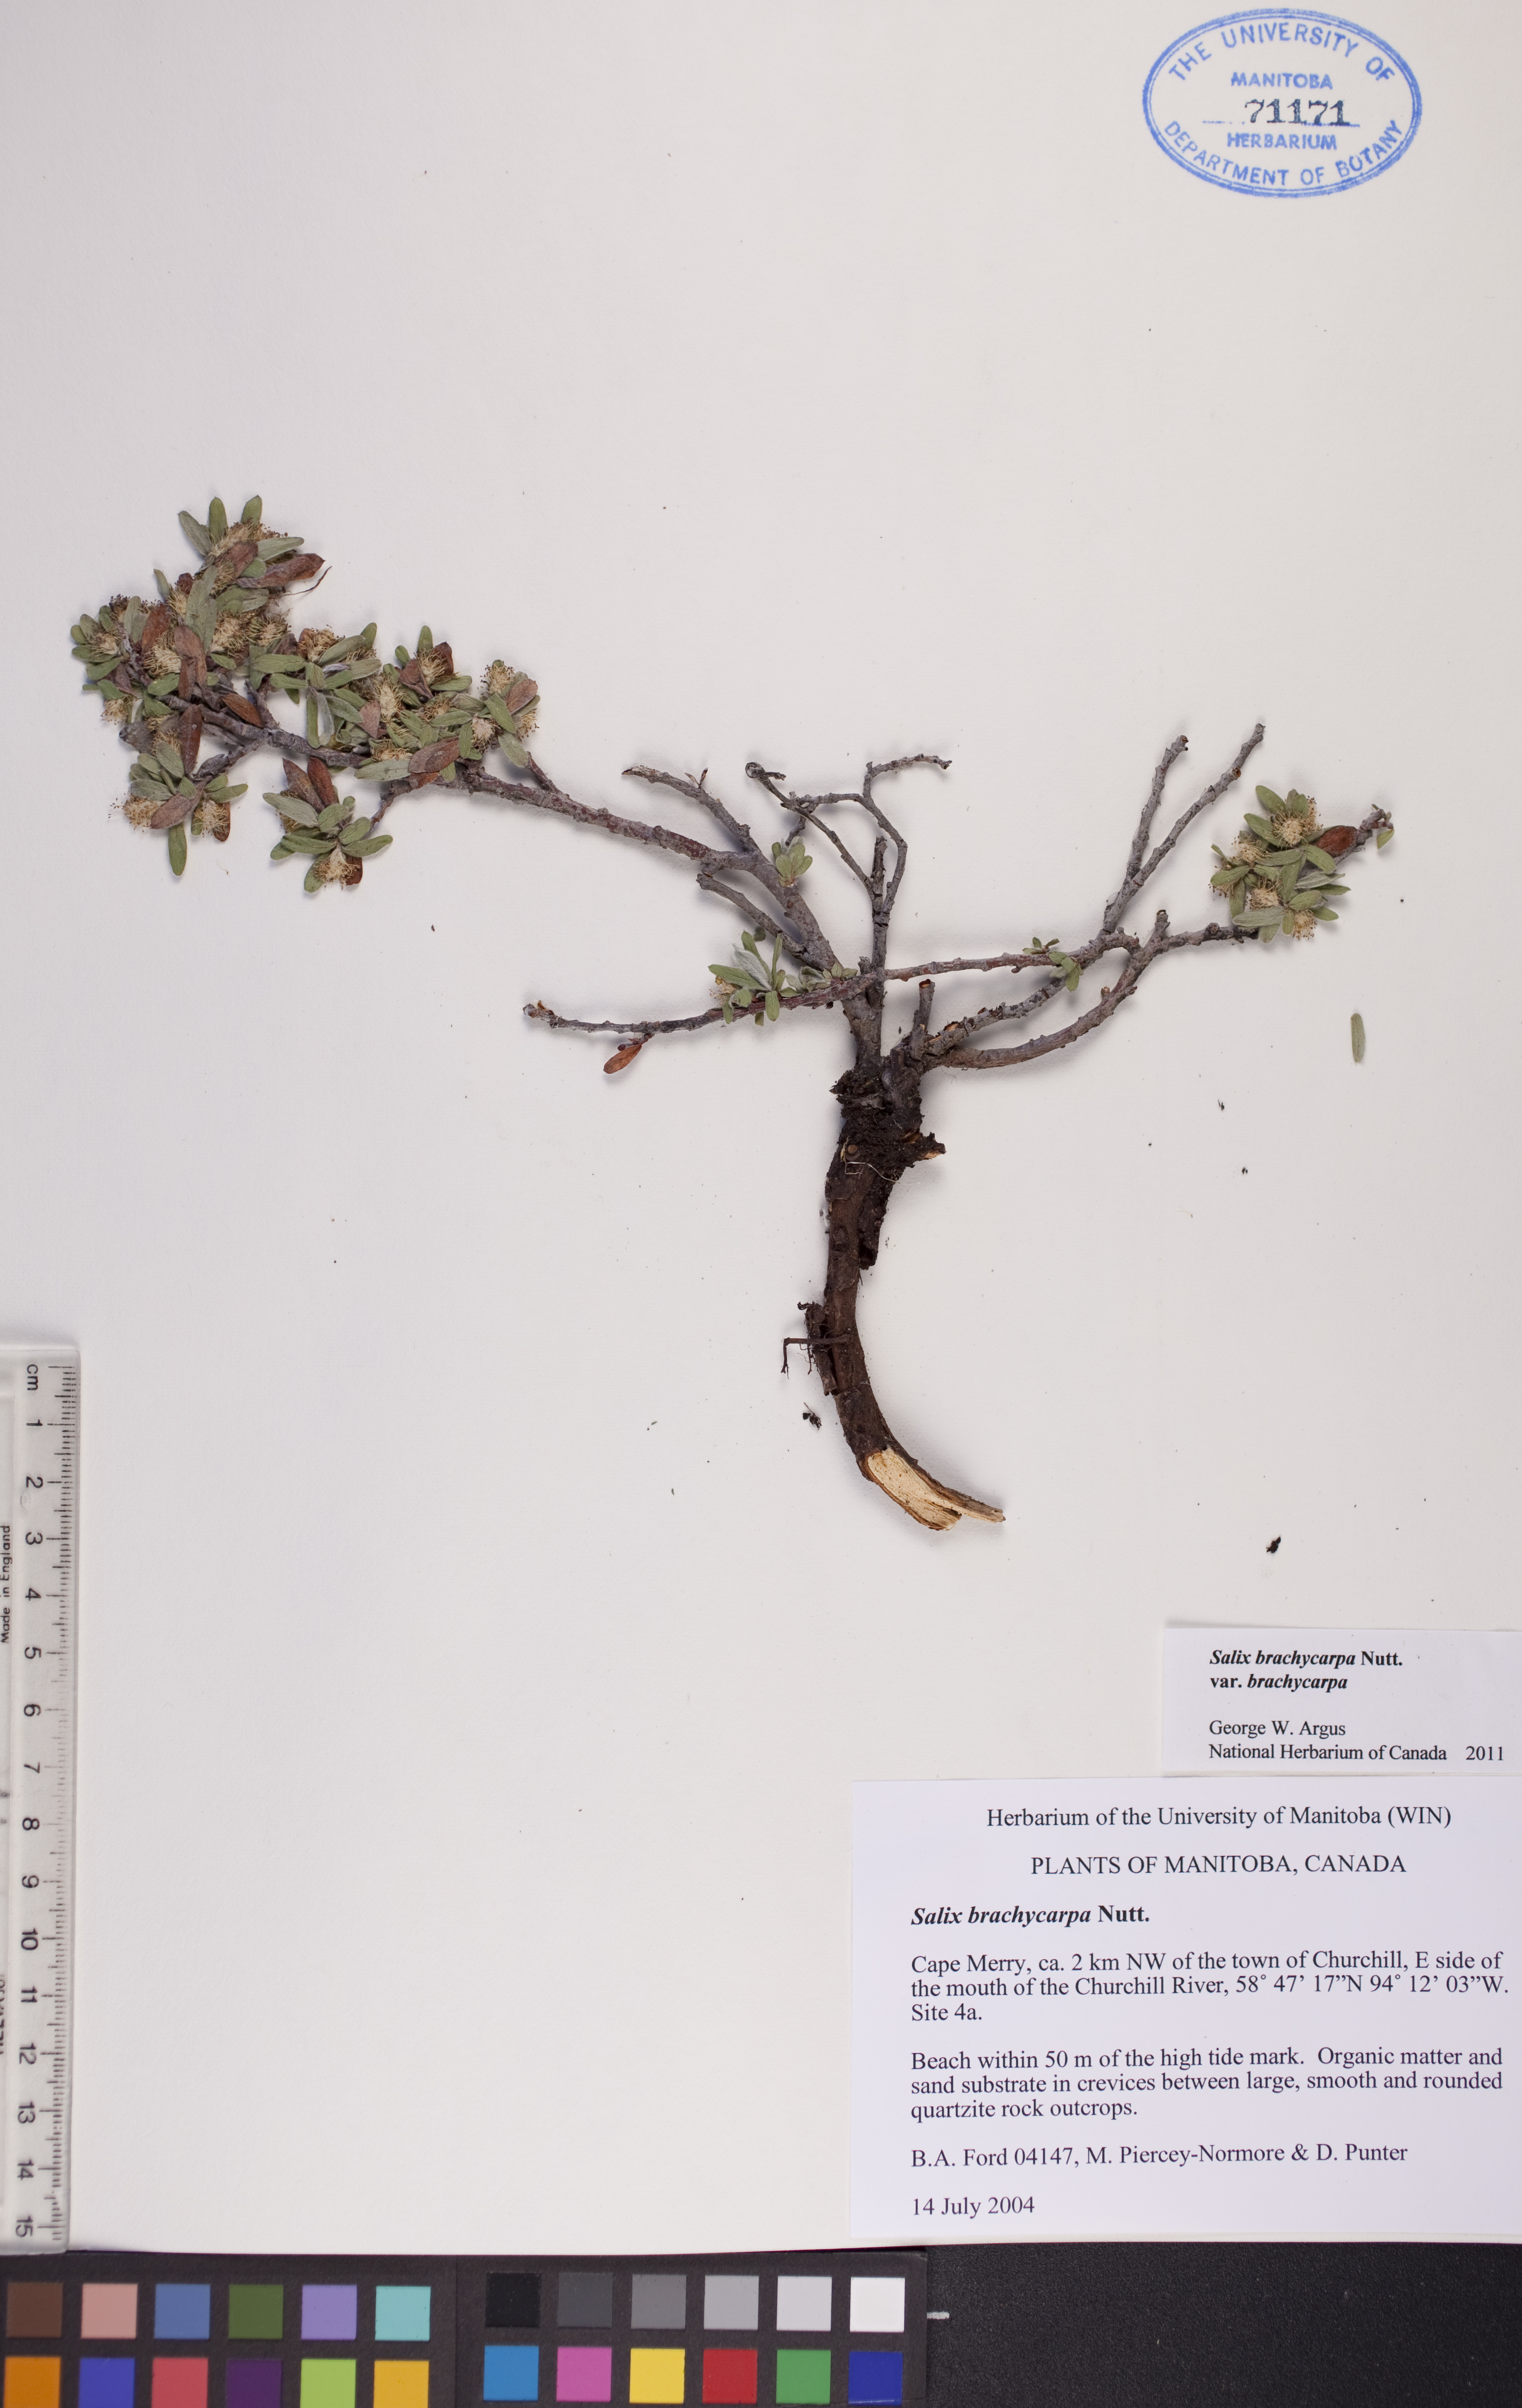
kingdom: Plantae
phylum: Tracheophyta
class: Magnoliopsida
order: Malpighiales
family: Salicaceae
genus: Salix
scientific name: Salix brachycarpa
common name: Barren-ground willow
